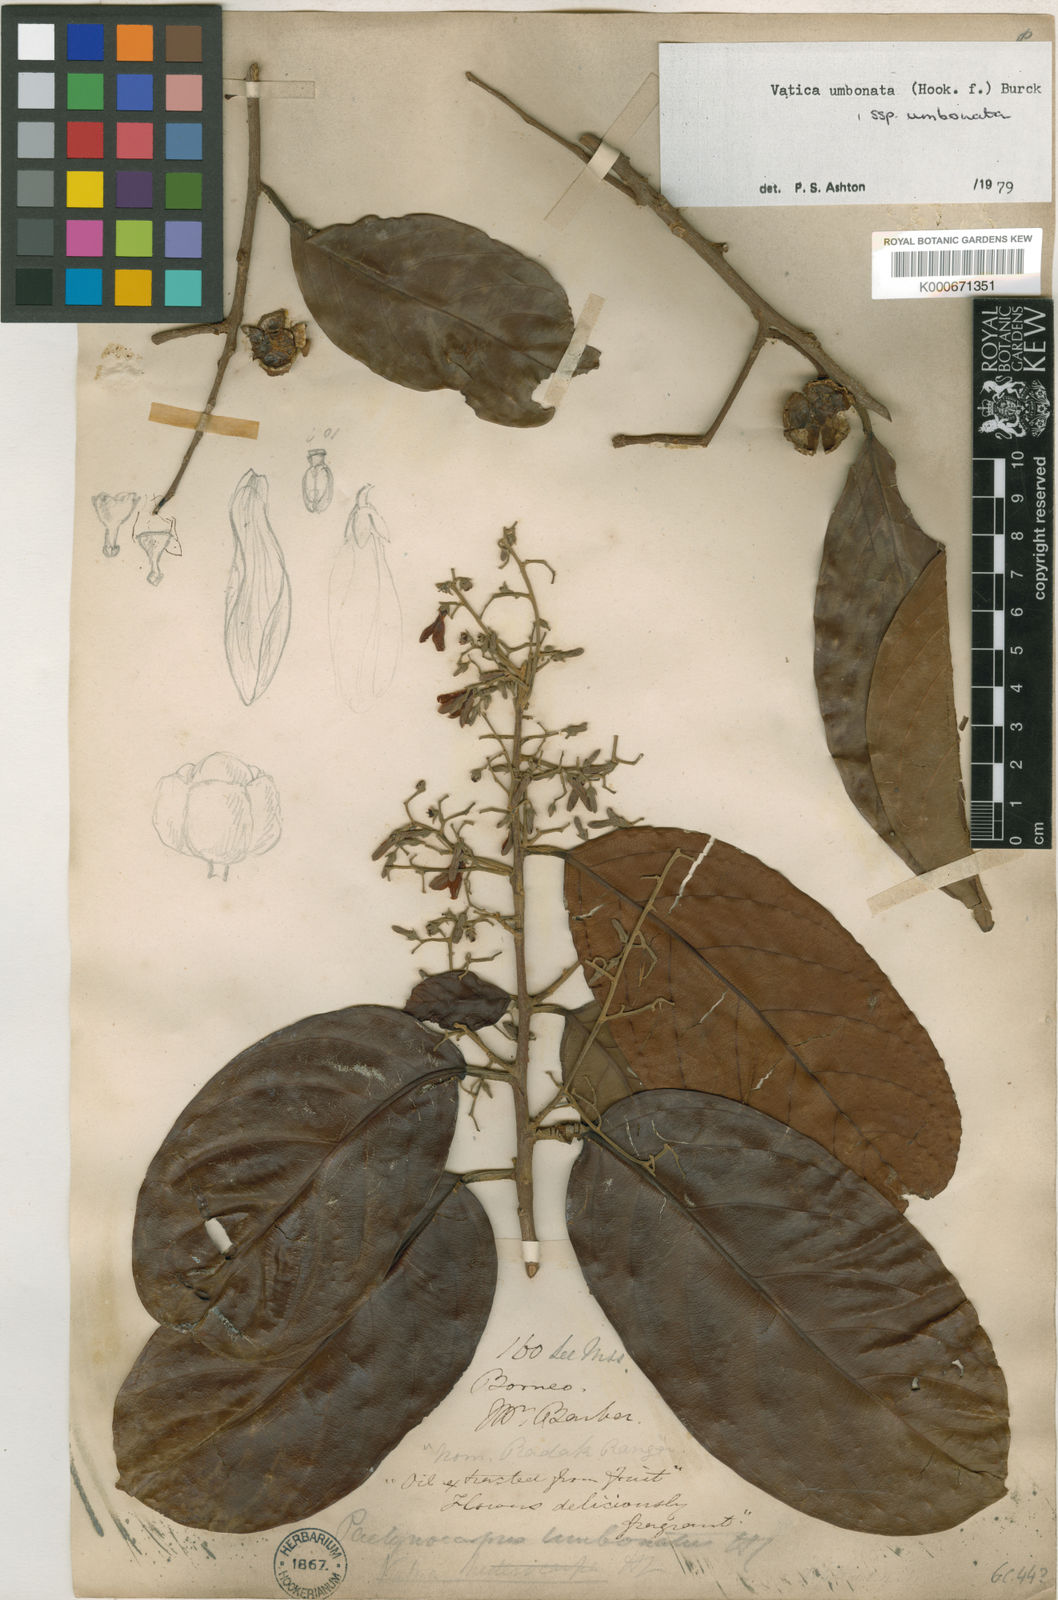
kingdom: Plantae
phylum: Tracheophyta
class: Magnoliopsida
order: Malvales
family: Dipterocarpaceae
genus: Vatica
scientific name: Vatica umbonata
